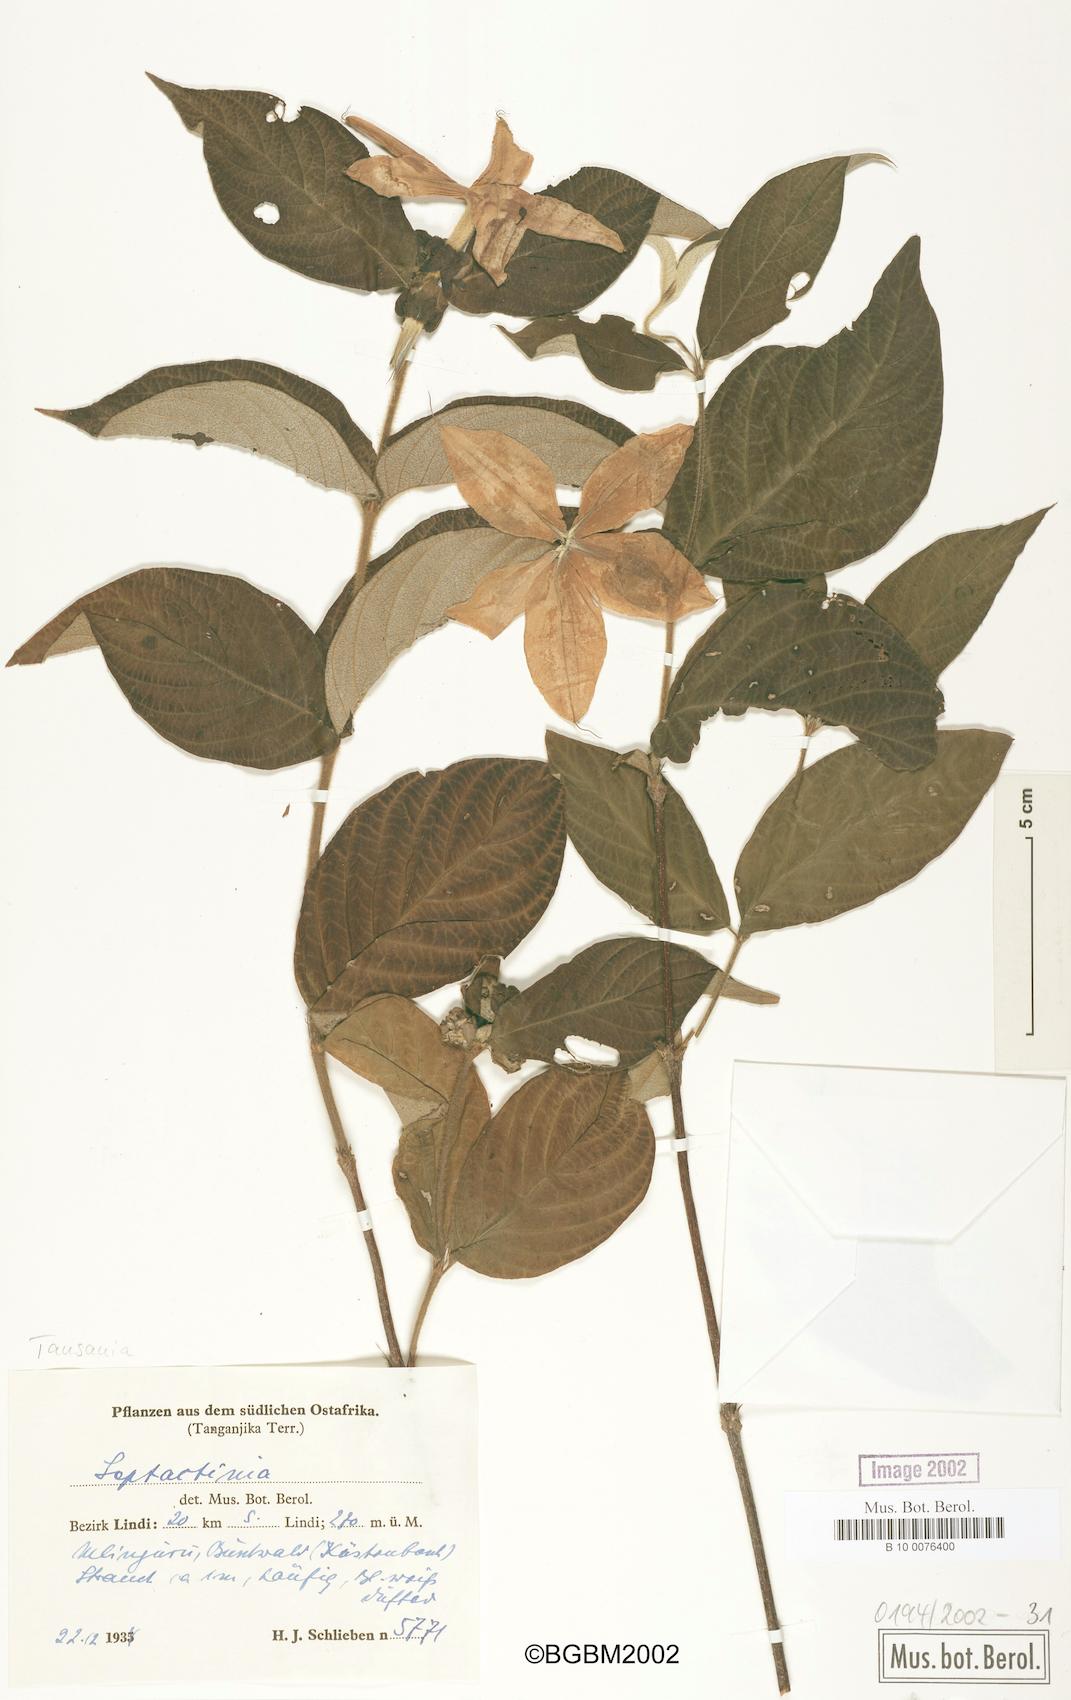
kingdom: Plantae
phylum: Tracheophyta
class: Magnoliopsida
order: Gentianales
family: Rubiaceae
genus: Leptactinia
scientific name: Leptactinia
